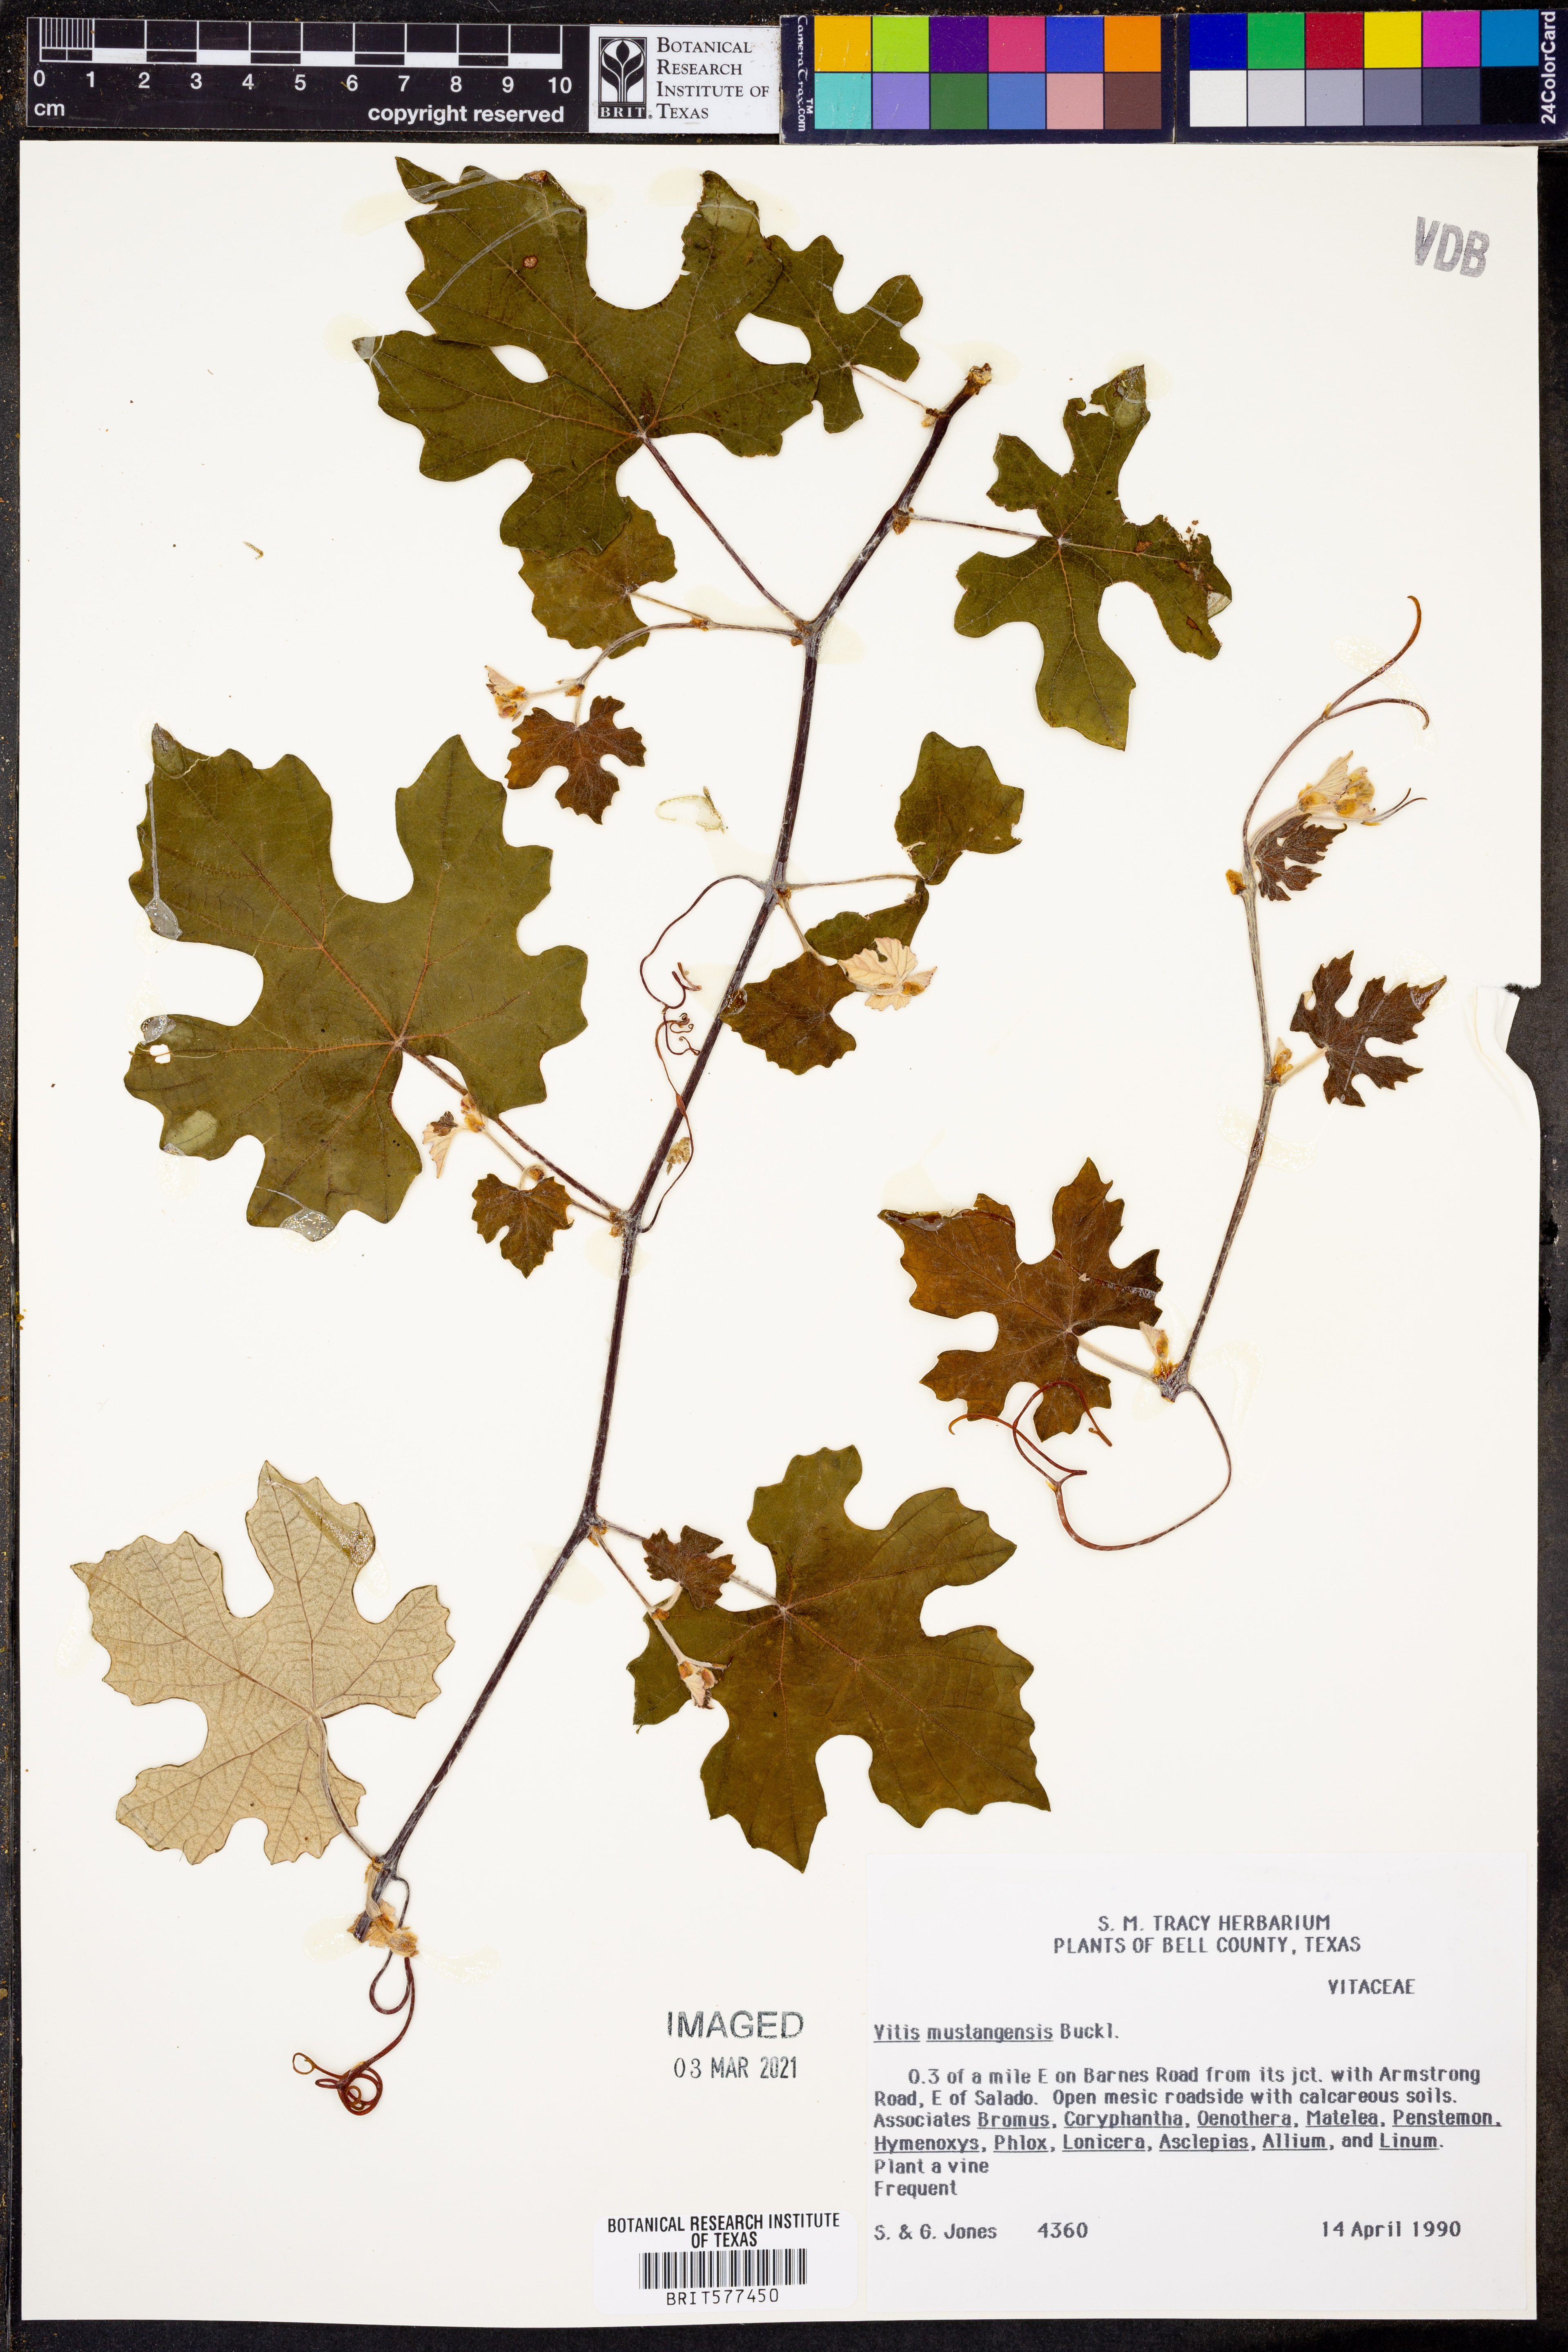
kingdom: Plantae
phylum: Tracheophyta
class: Magnoliopsida
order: Vitales
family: Vitaceae
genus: Vitis
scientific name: Vitis mustangensis
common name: Mustang grape
